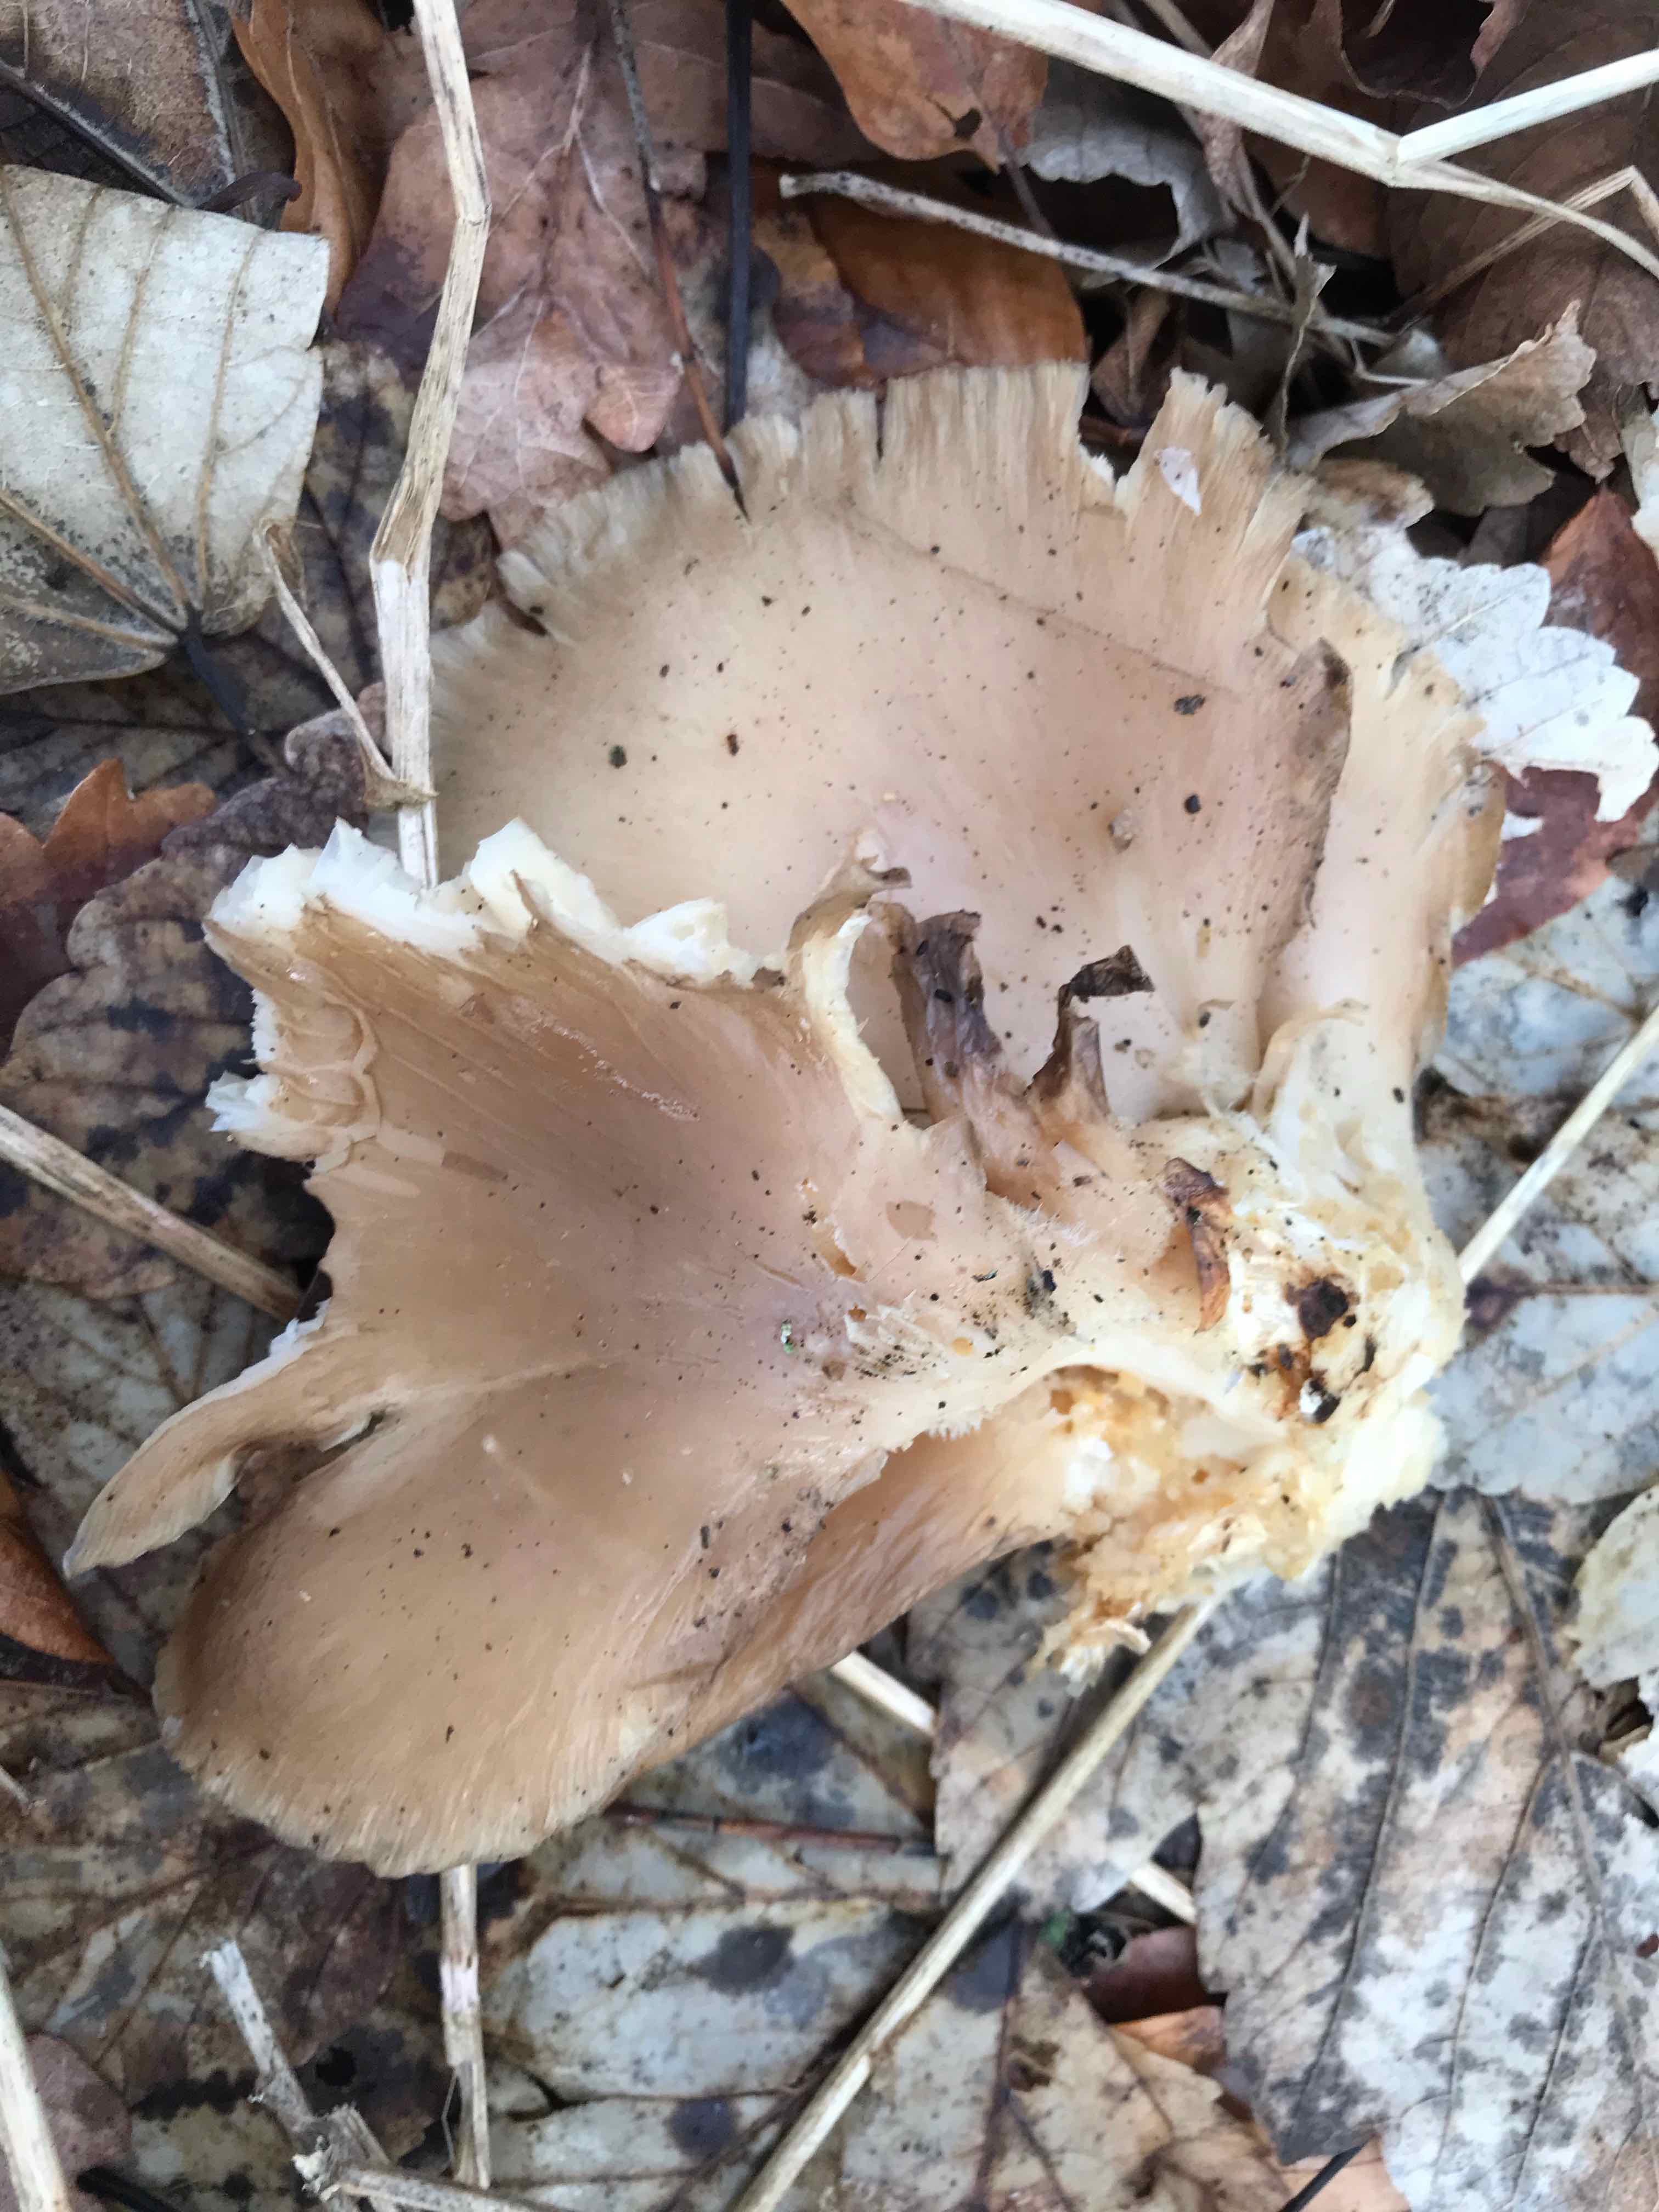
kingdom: Fungi
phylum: Basidiomycota
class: Agaricomycetes
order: Agaricales
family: Pleurotaceae
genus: Pleurotus
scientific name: Pleurotus ostreatus
